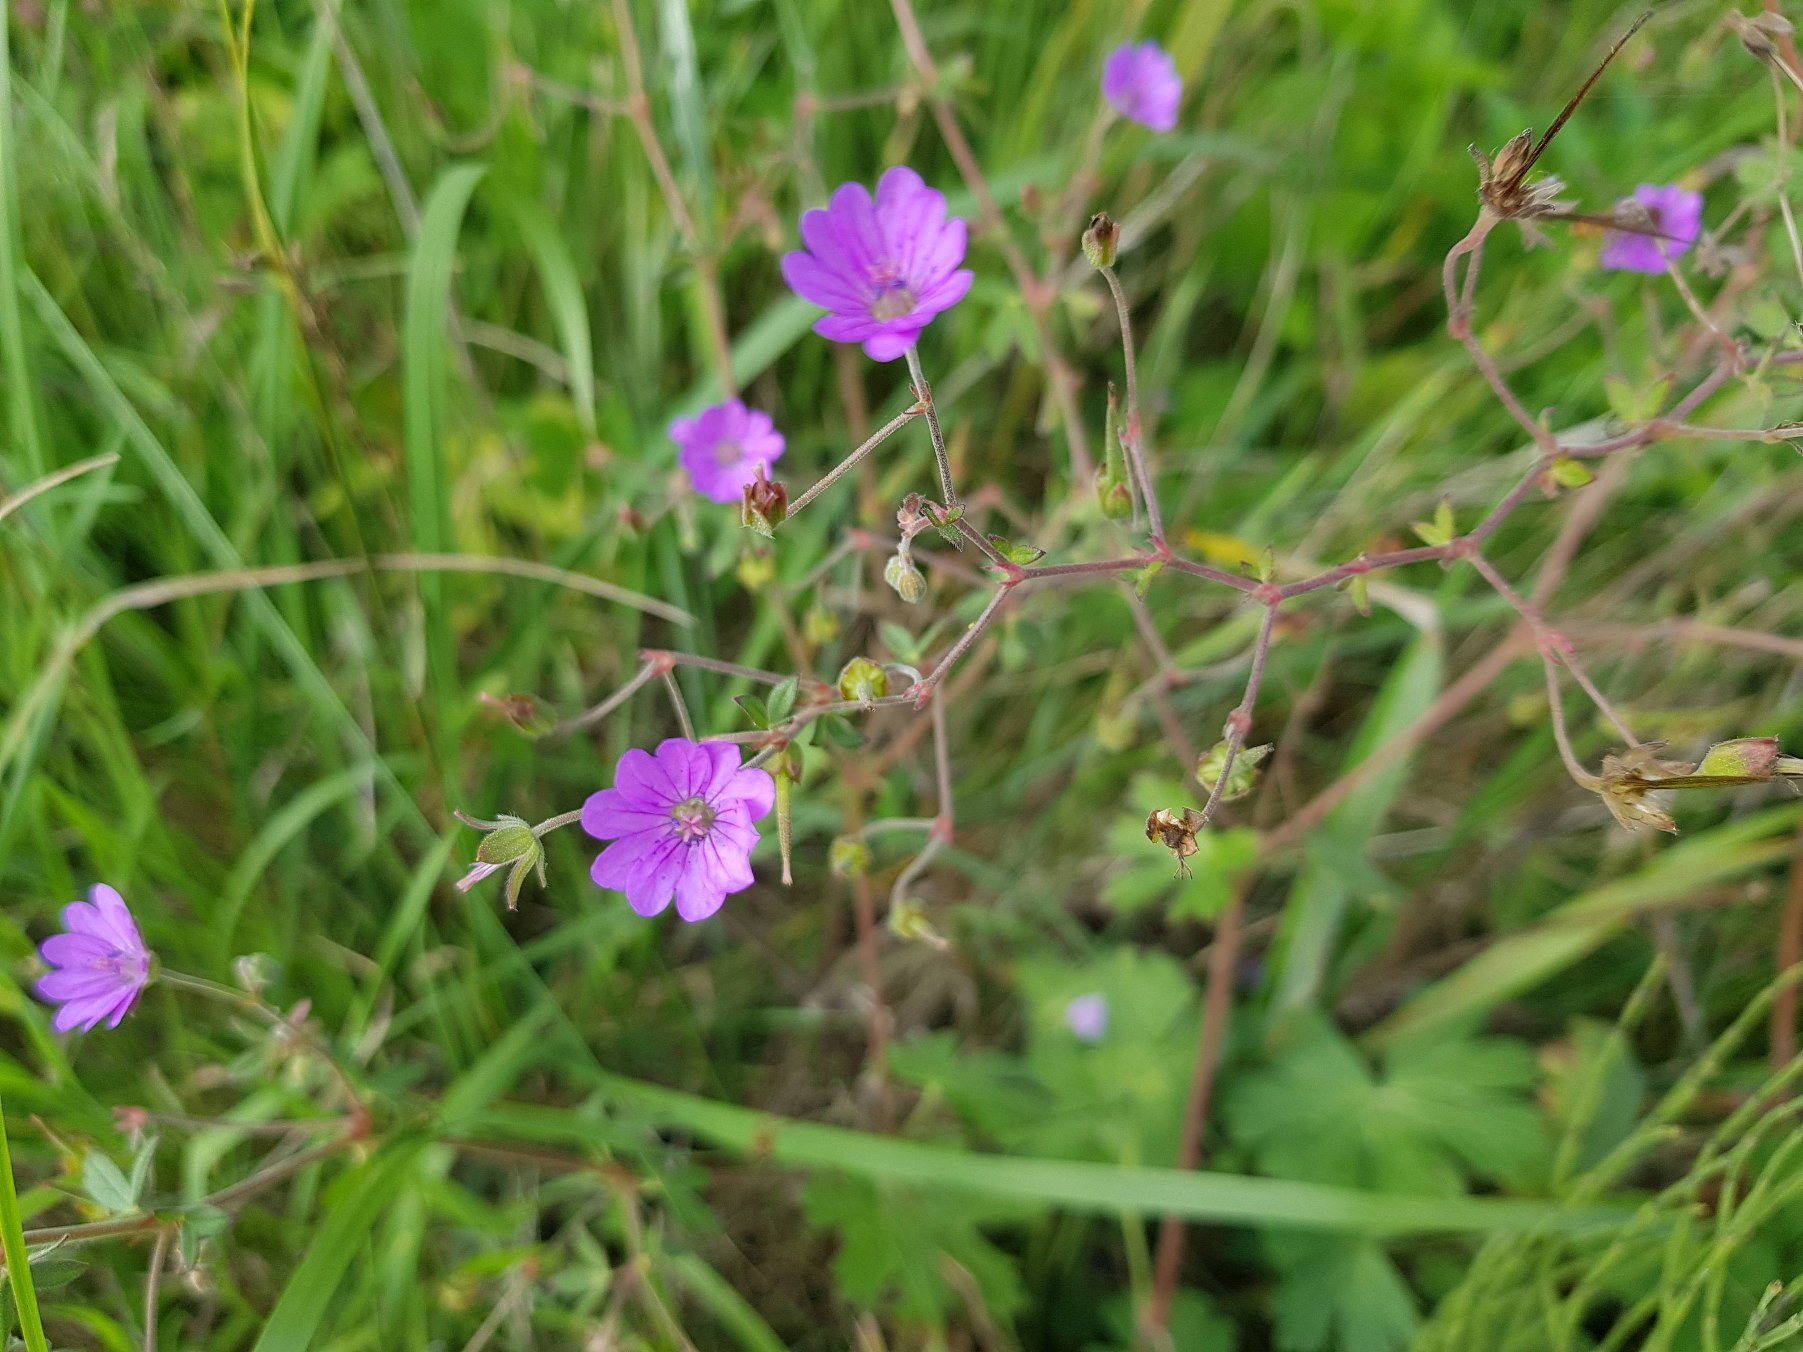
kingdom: Plantae
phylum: Tracheophyta
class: Magnoliopsida
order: Geraniales
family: Geraniaceae
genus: Geranium
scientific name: Geranium pyrenaicum
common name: Pyrenæisk storkenæb
